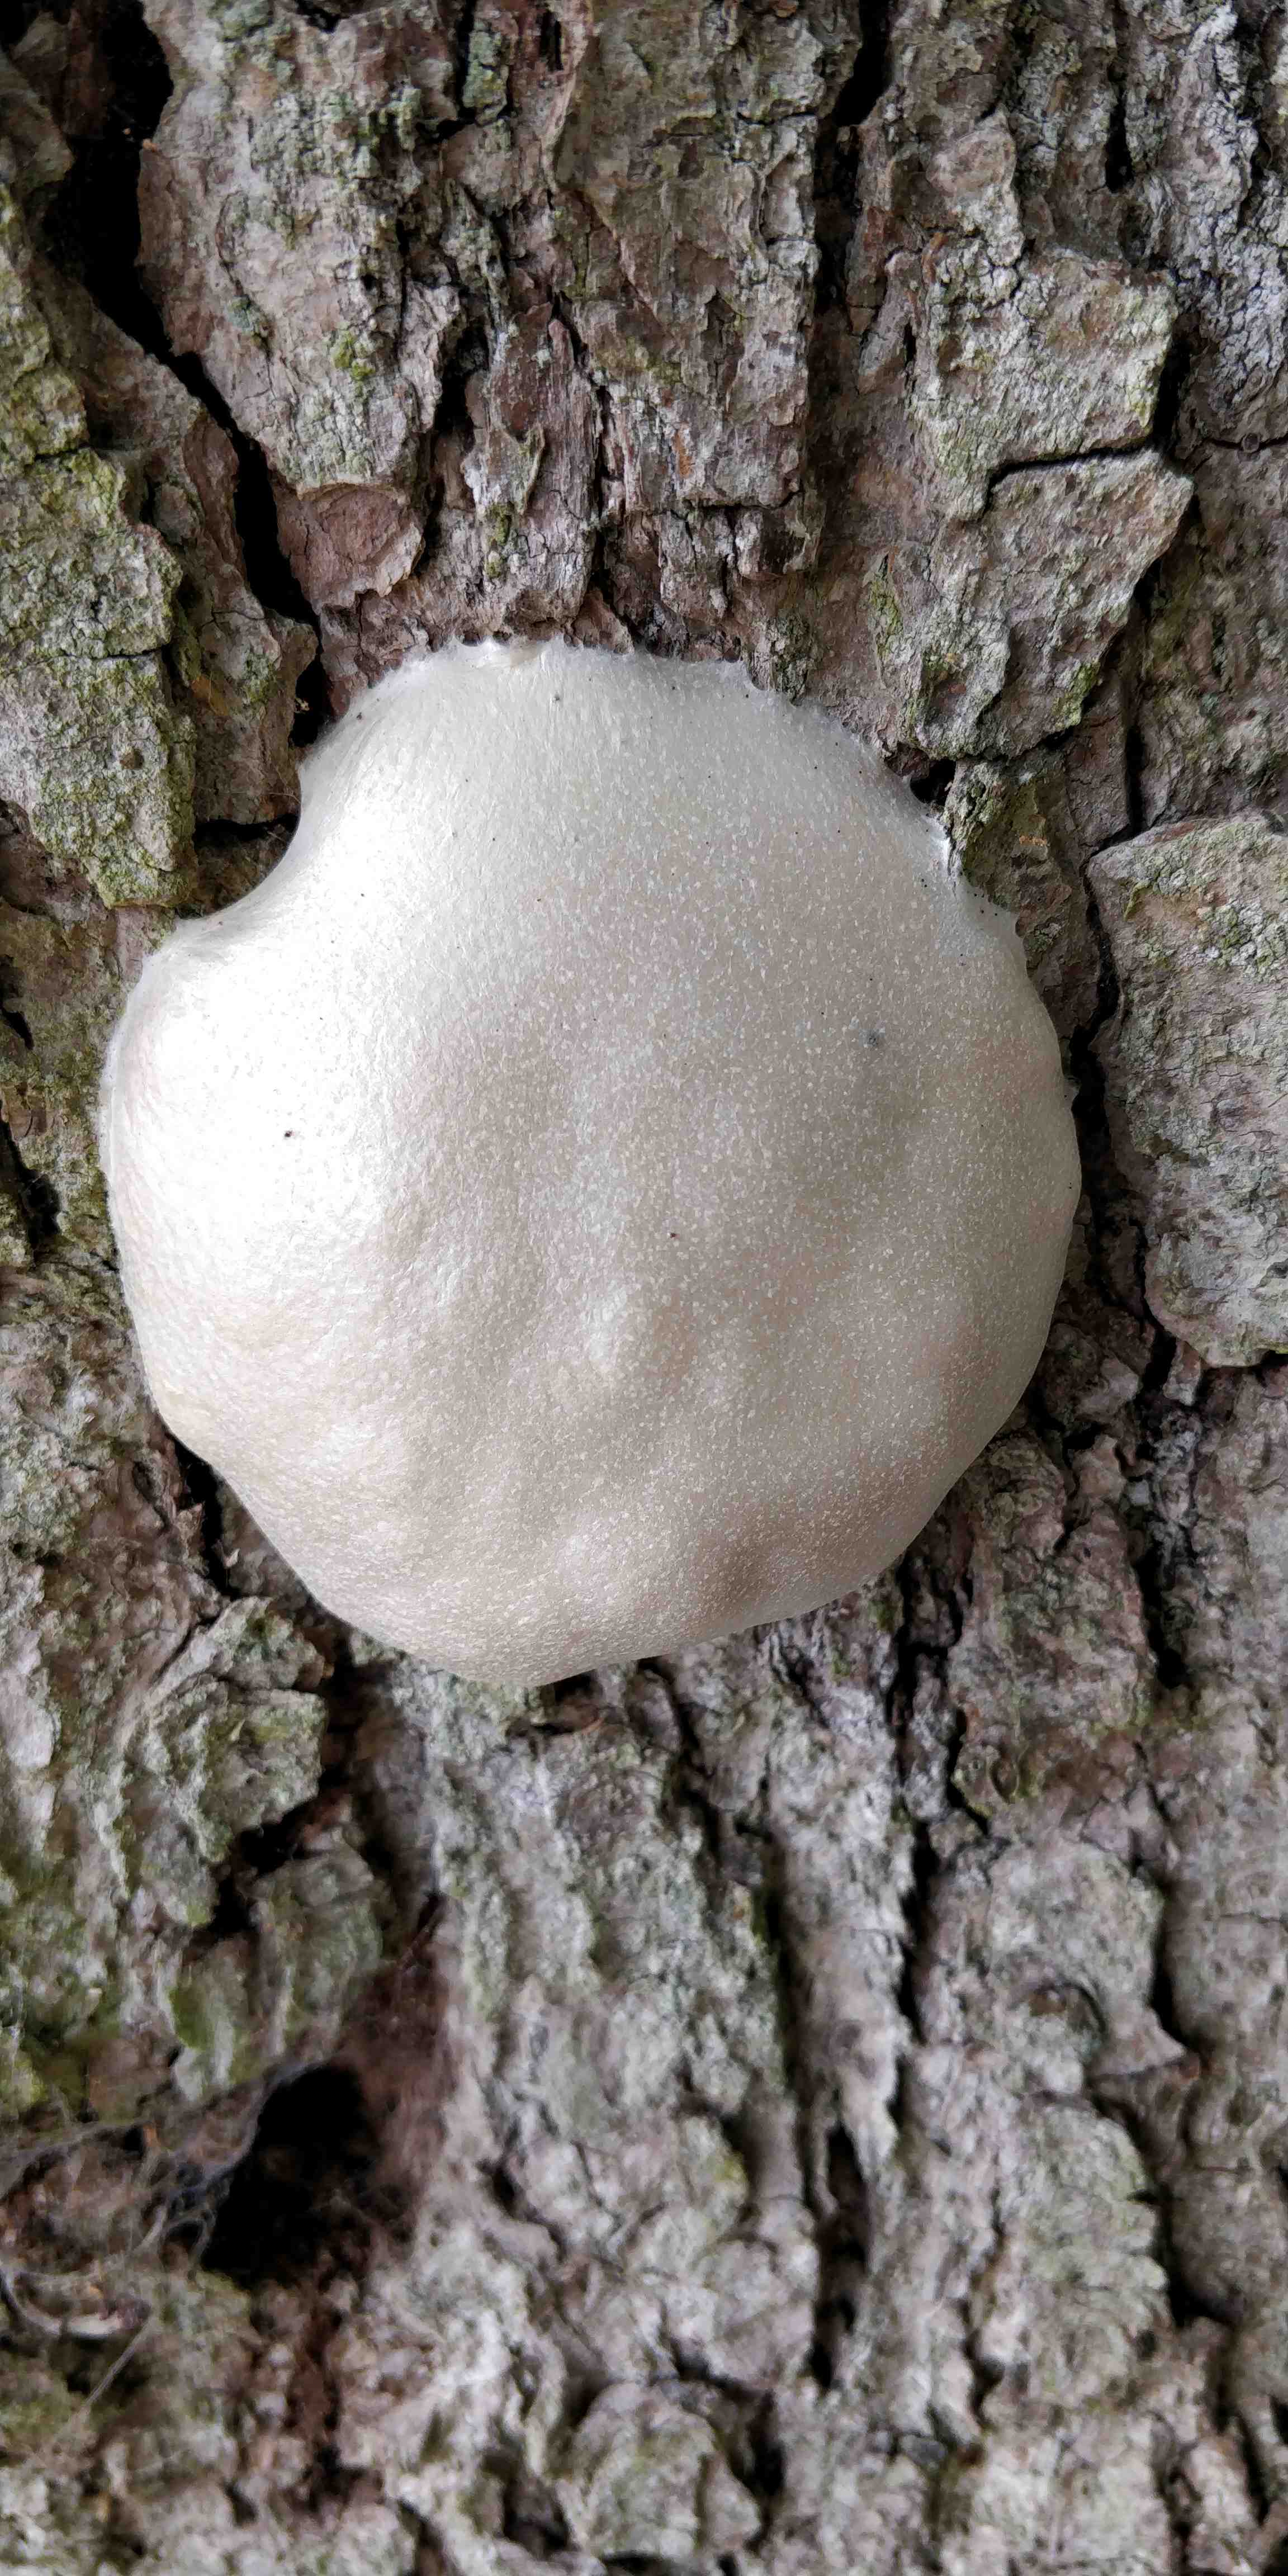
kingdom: Protozoa
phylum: Mycetozoa
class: Myxomycetes
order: Cribrariales
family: Tubiferaceae
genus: Reticularia
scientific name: Reticularia
